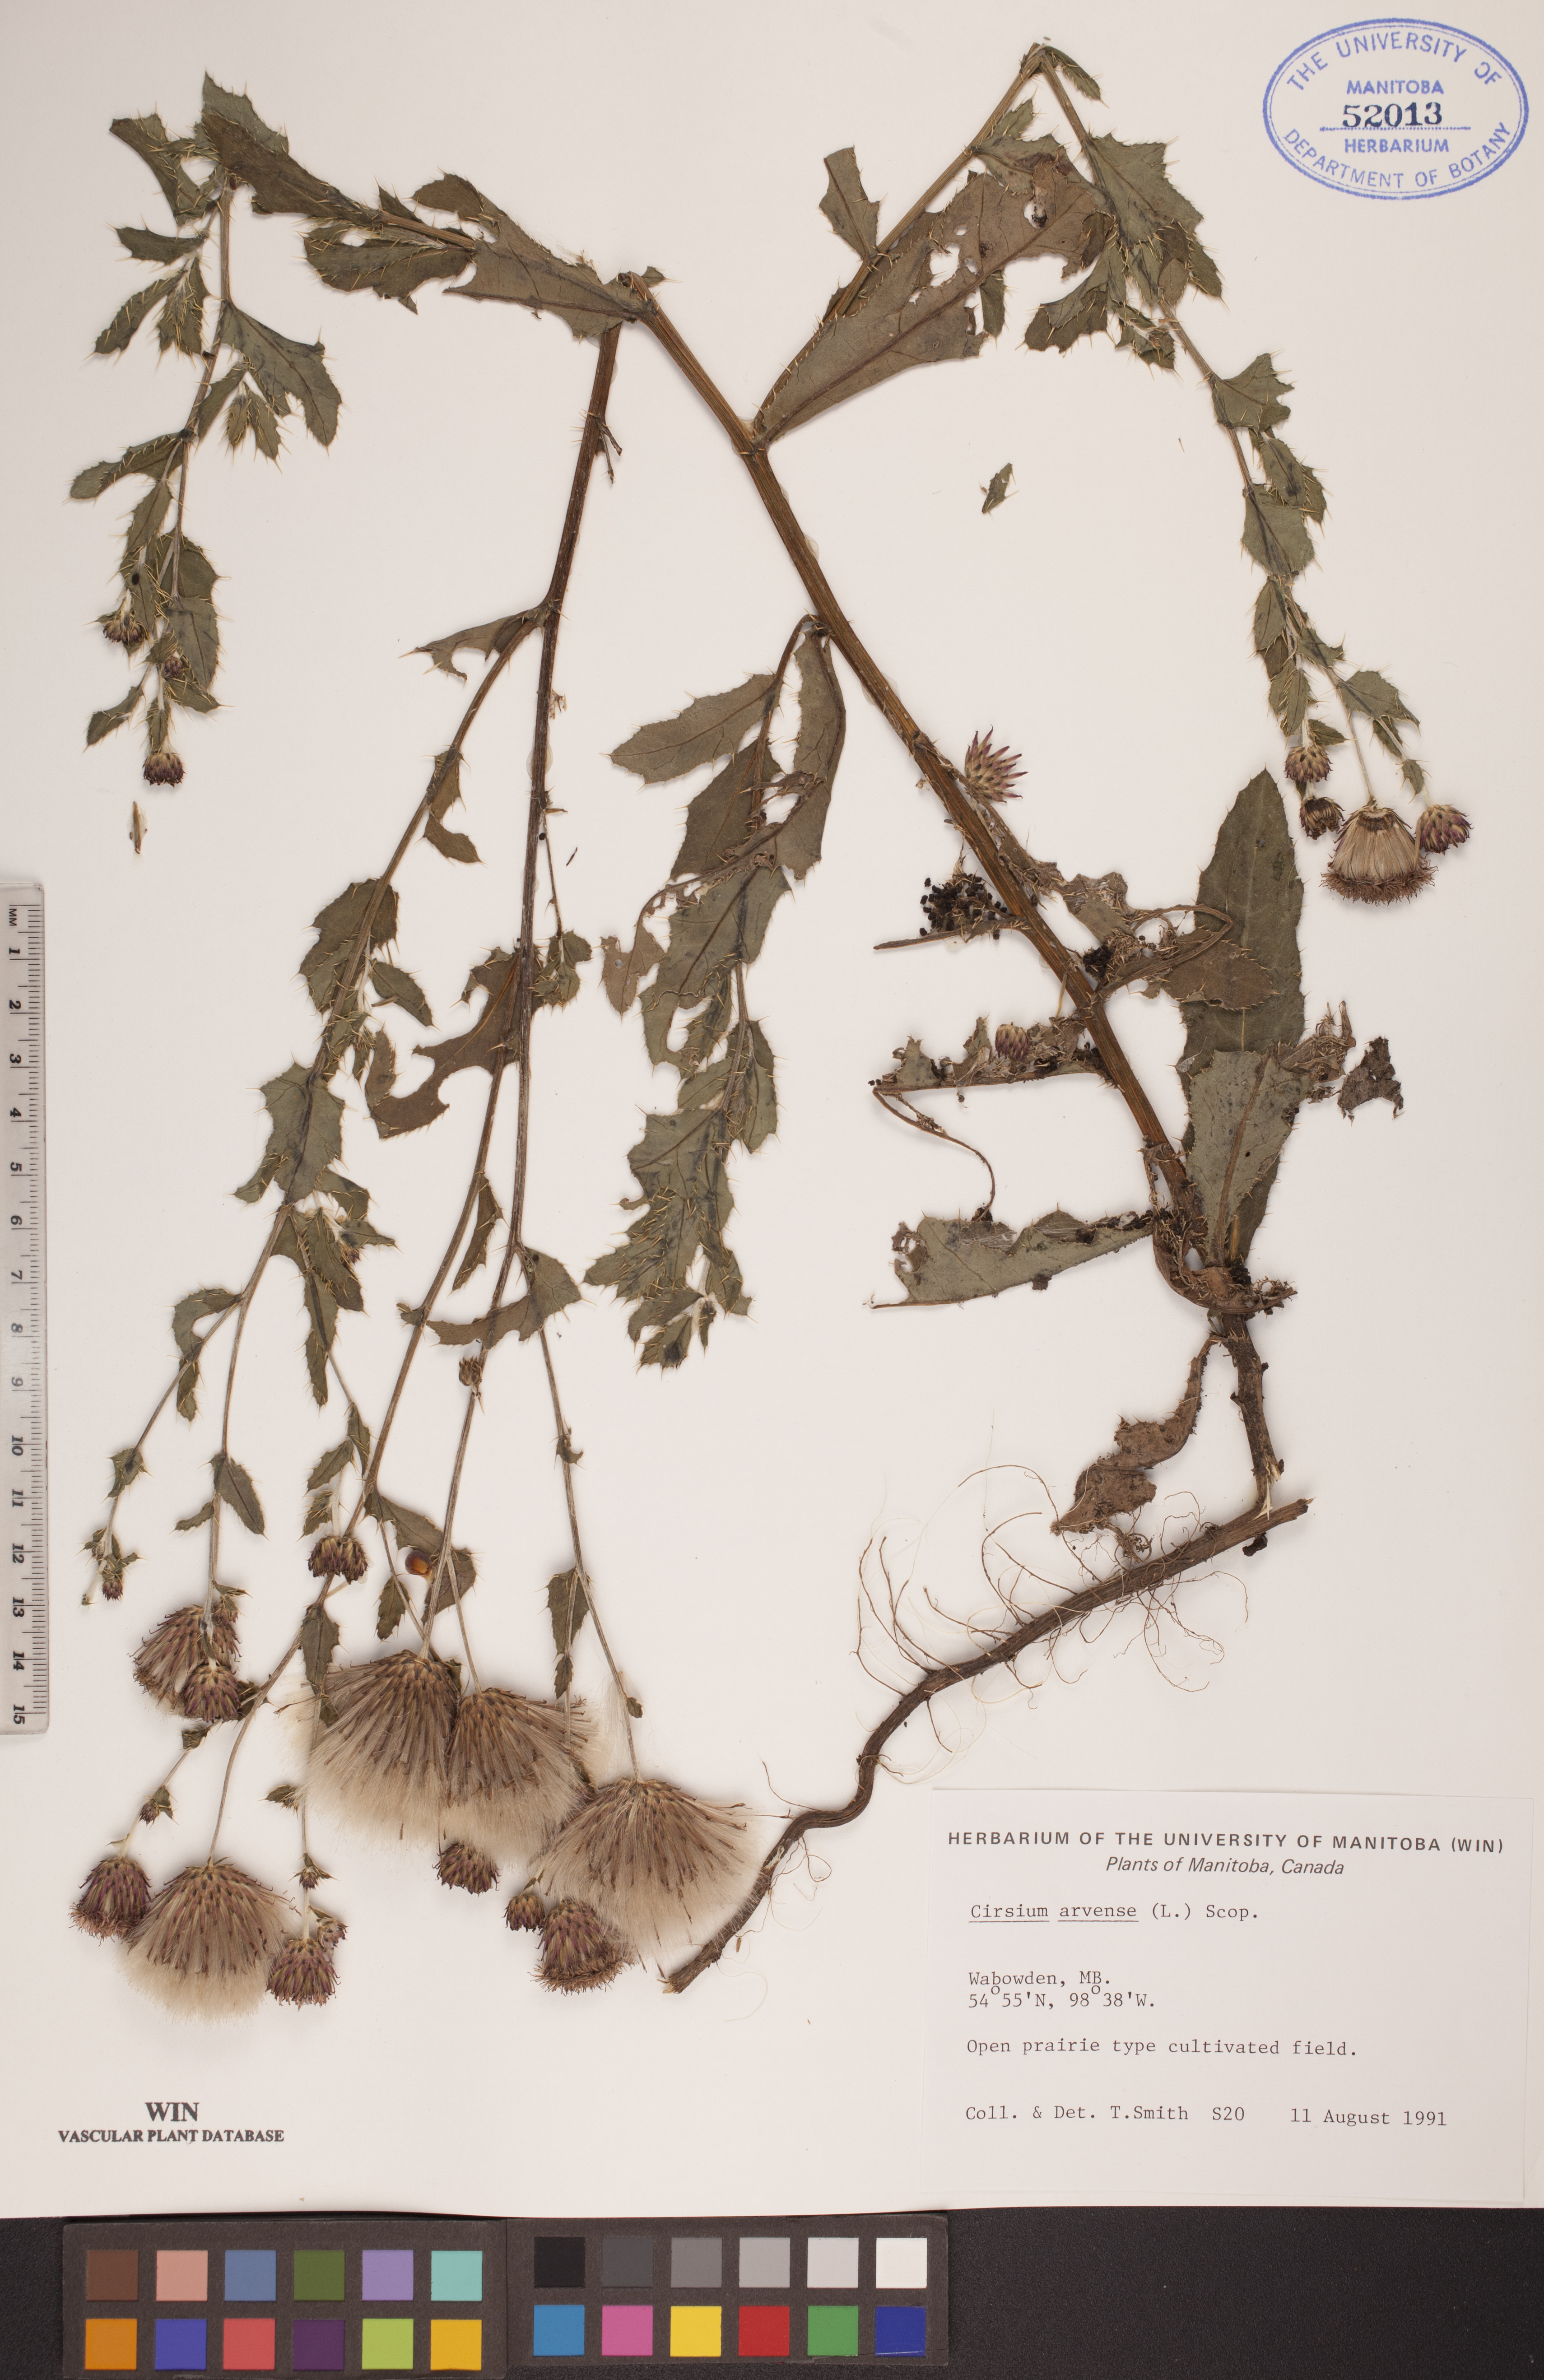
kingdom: Plantae
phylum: Tracheophyta
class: Magnoliopsida
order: Asterales
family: Asteraceae
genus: Cirsium
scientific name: Cirsium arvense
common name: Creeping thistle
